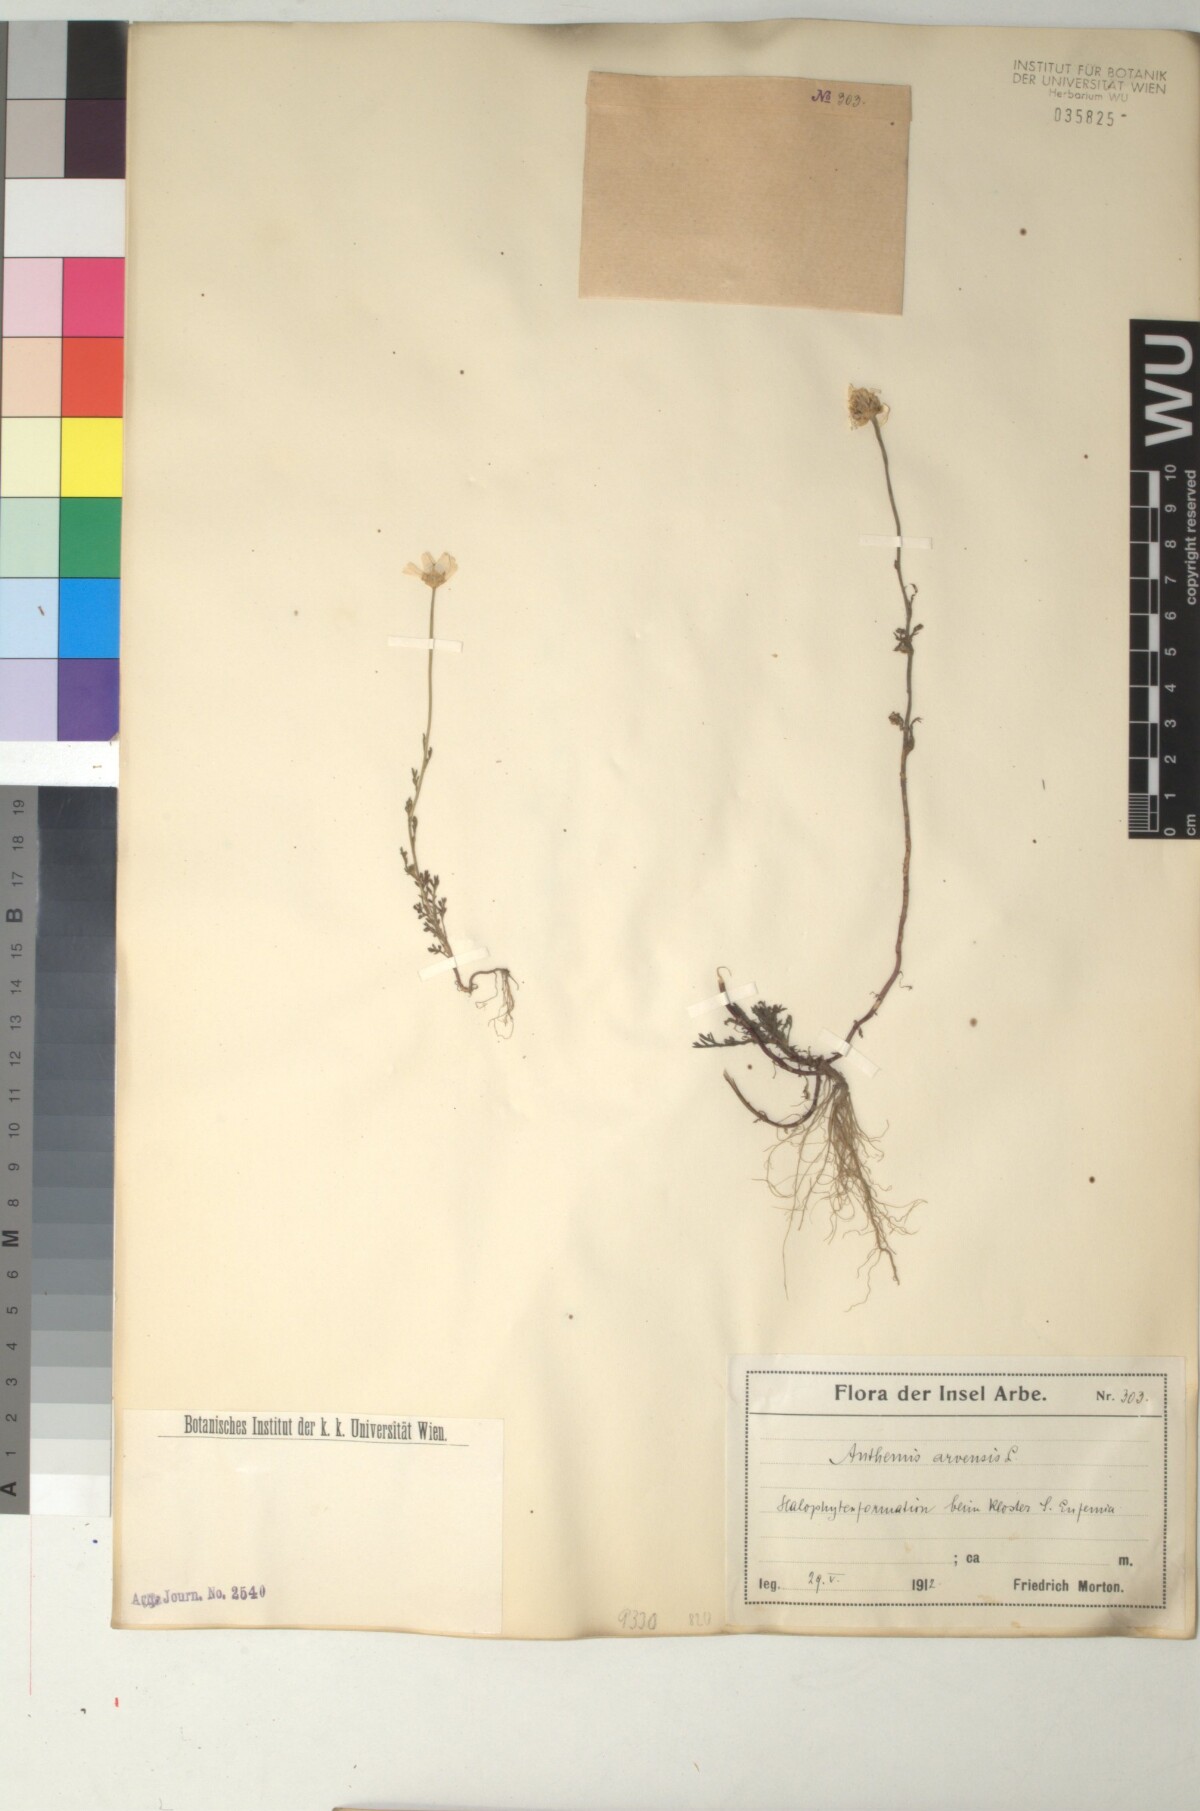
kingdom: Plantae
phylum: Tracheophyta
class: Magnoliopsida
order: Asterales
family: Asteraceae
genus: Anthemis
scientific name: Anthemis arvensis
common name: Corn chamomile
